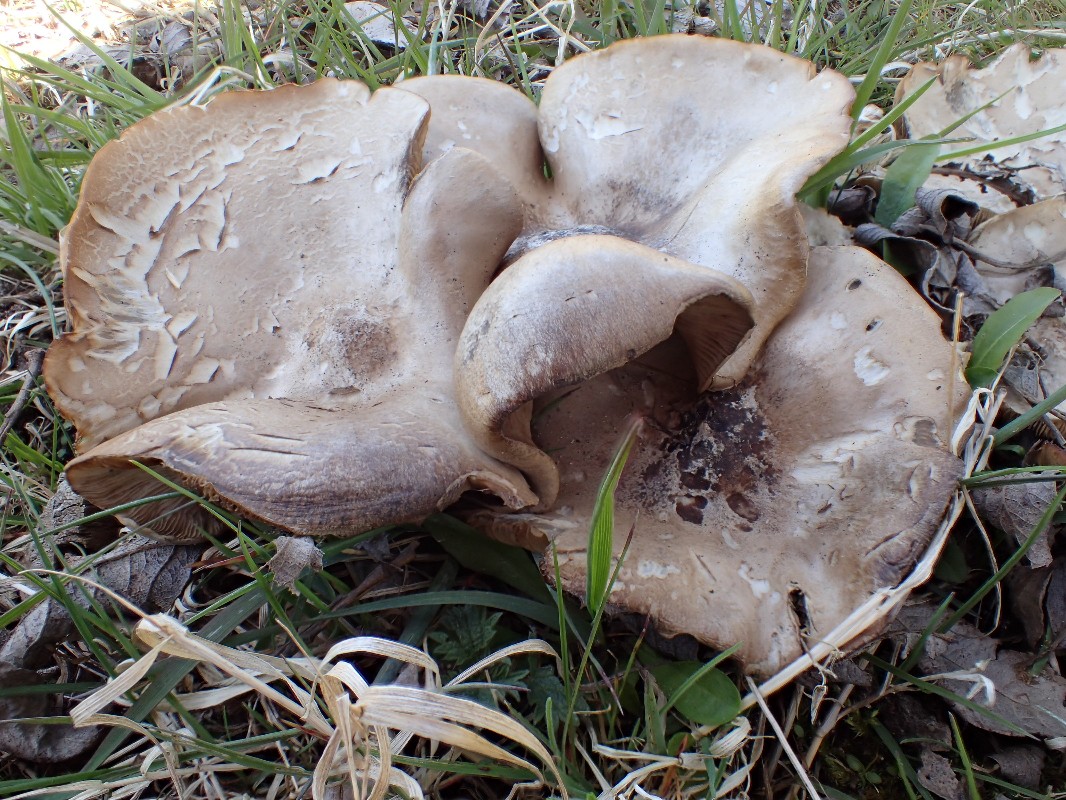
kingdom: Fungi
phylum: Basidiomycota
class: Agaricomycetes
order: Agaricales
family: Tricholomataceae
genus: Melanoleuca
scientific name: Melanoleuca cognata
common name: gyldengrå munkehat
